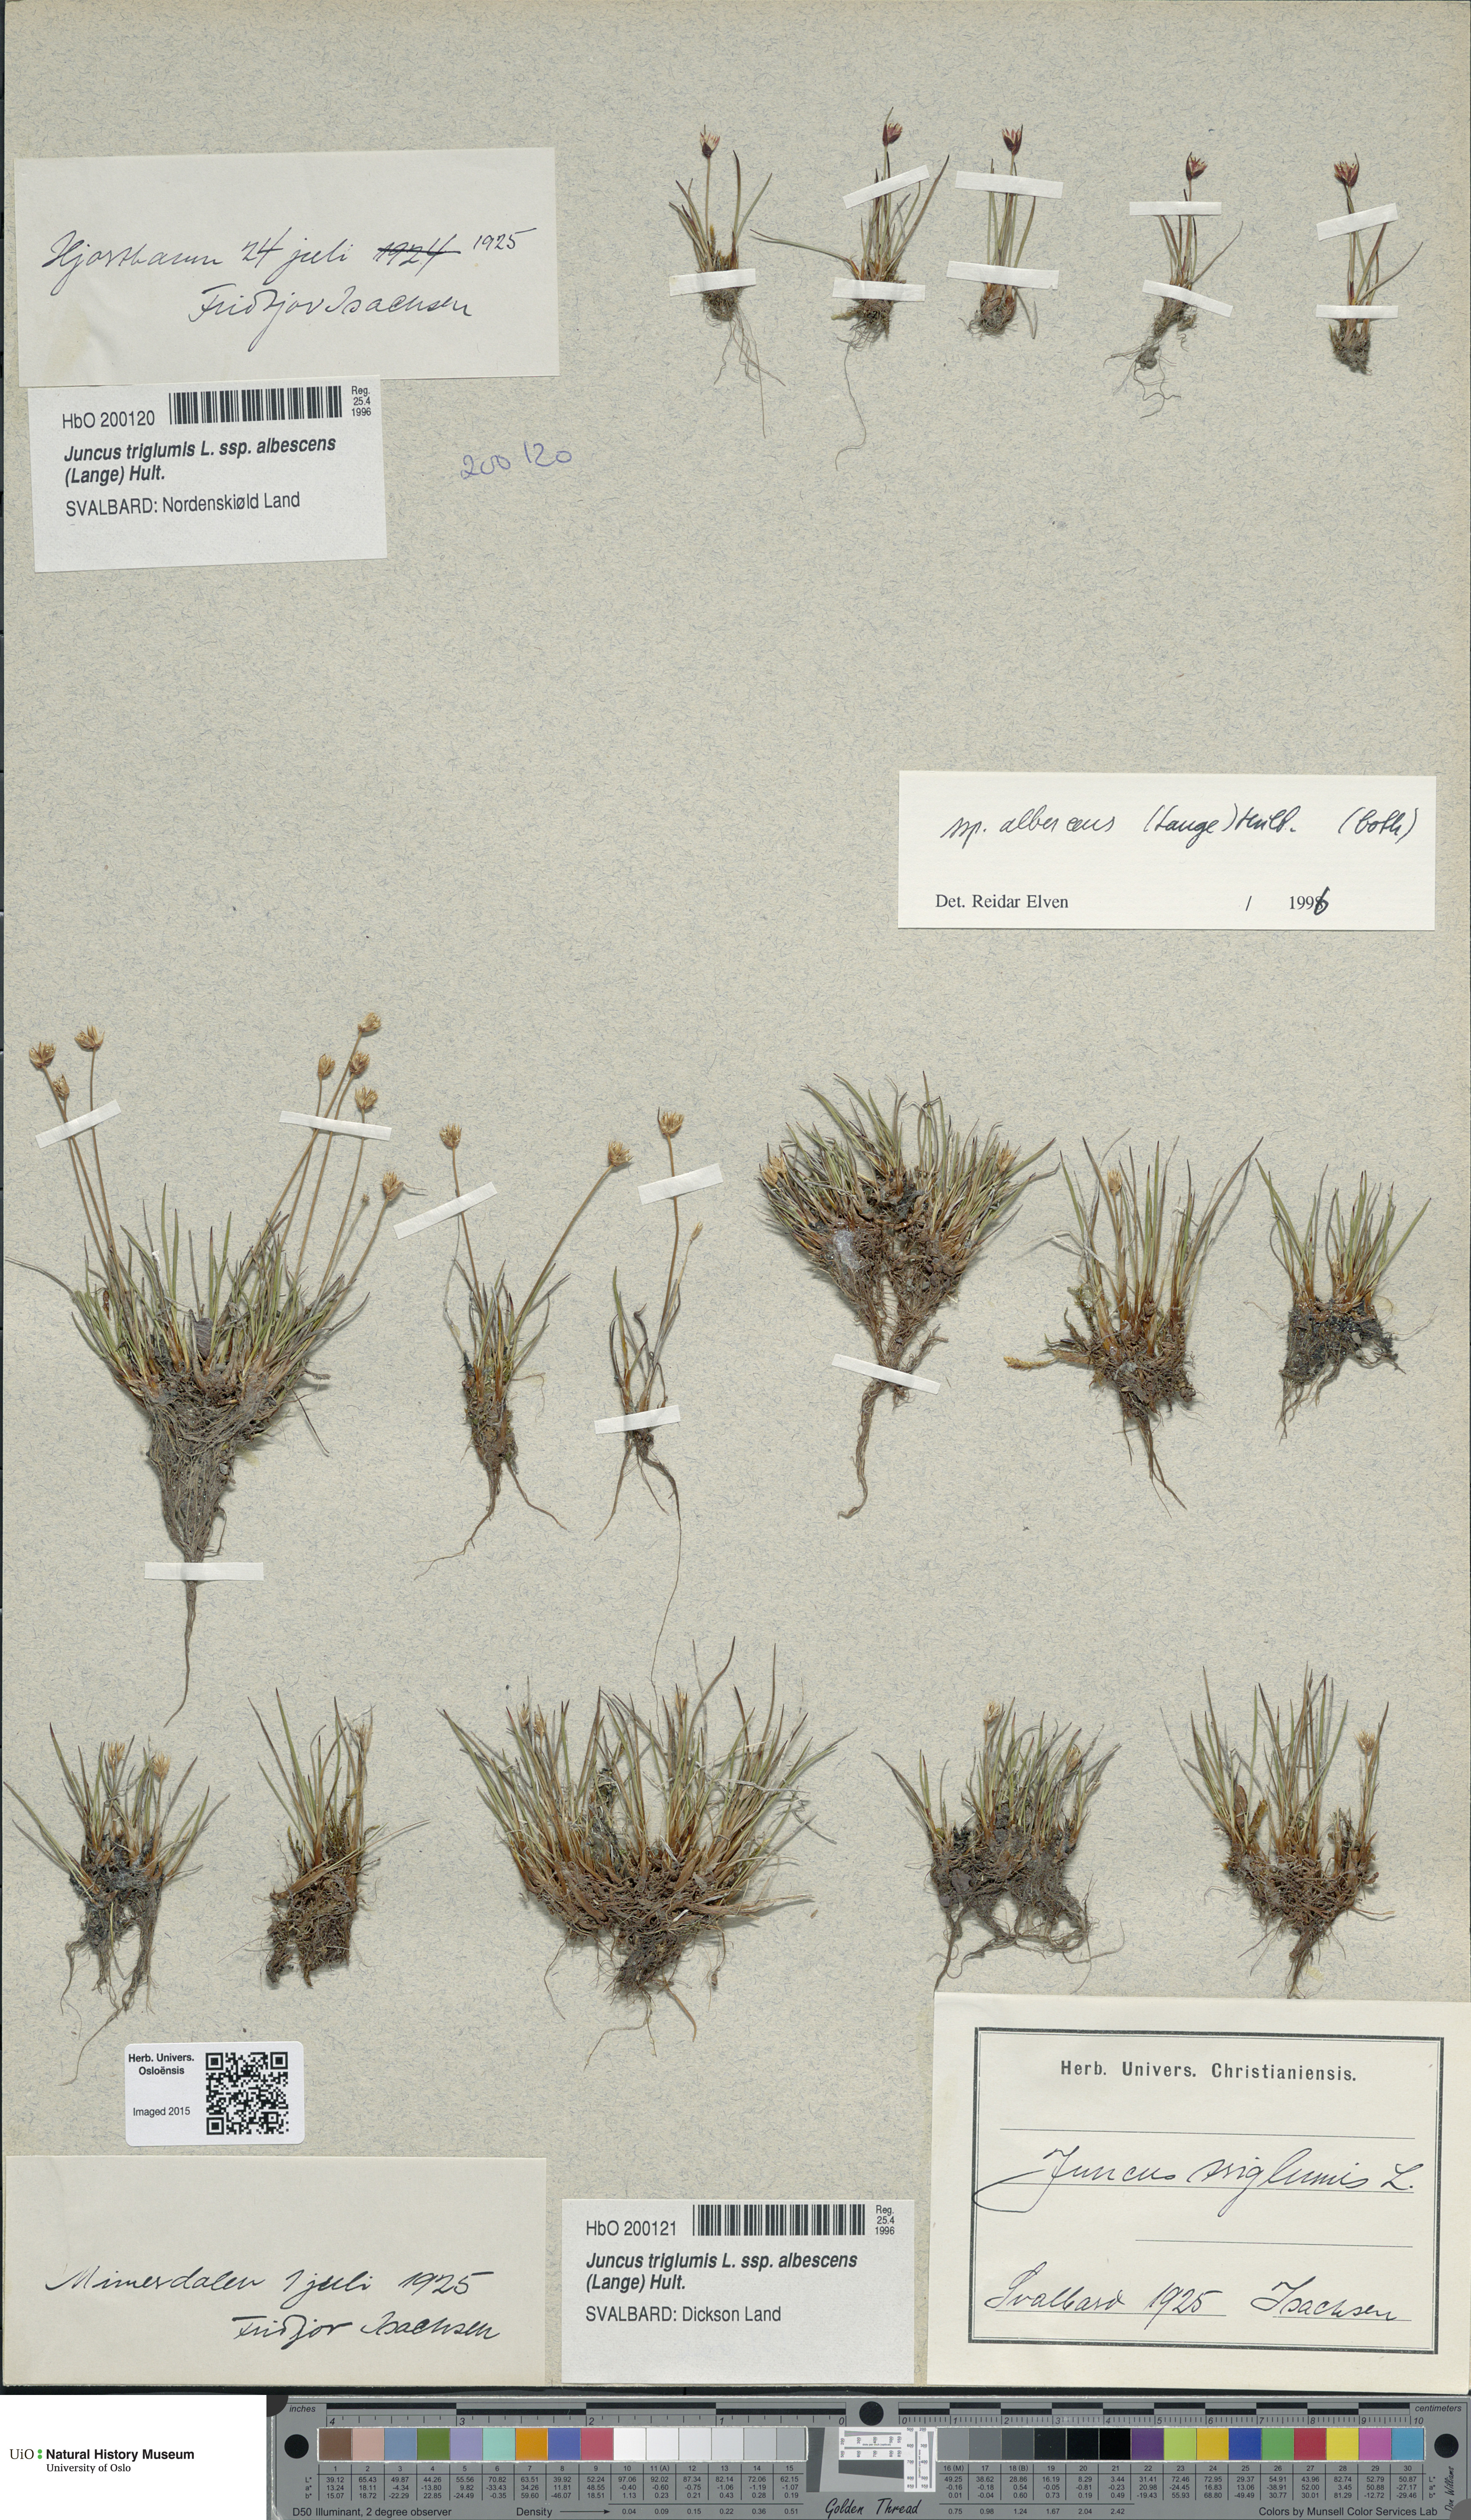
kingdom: Plantae
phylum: Tracheophyta
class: Liliopsida
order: Poales
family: Juncaceae
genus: Juncus
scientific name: Juncus albescens
